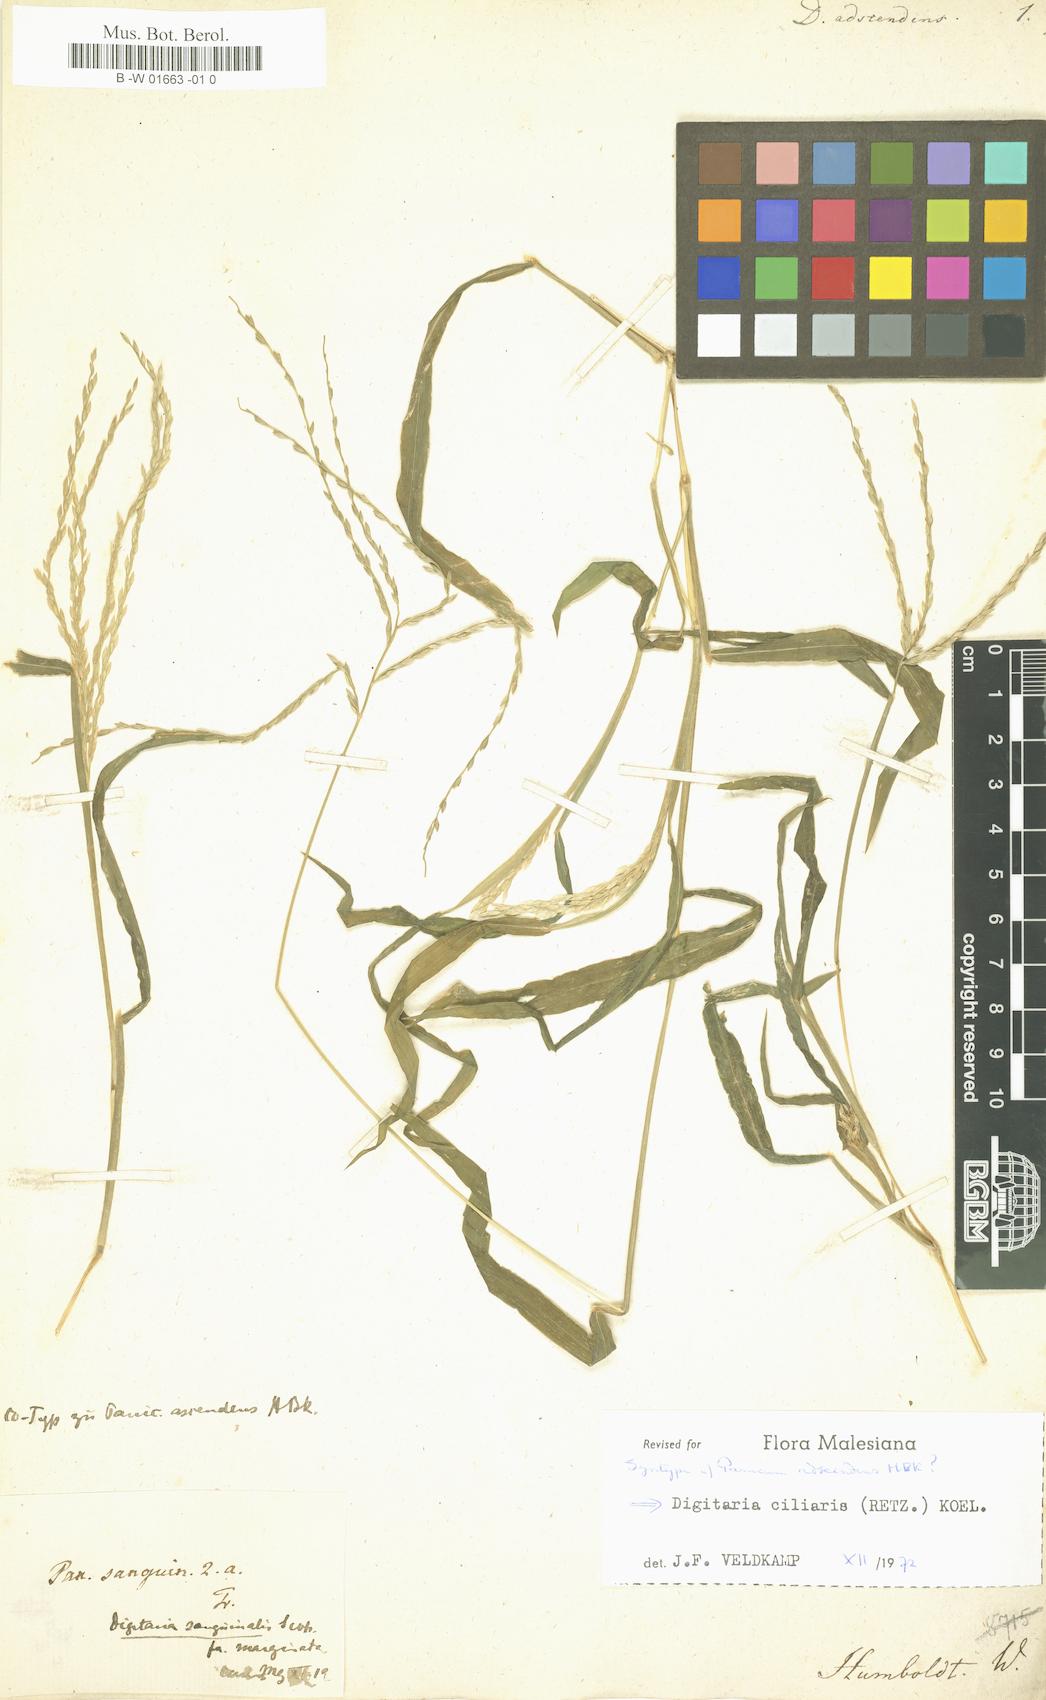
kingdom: Plantae
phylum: Tracheophyta
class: Liliopsida
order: Poales
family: Poaceae
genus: Digitaria
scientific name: Digitaria ciliaris
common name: Tropical finger-grass
